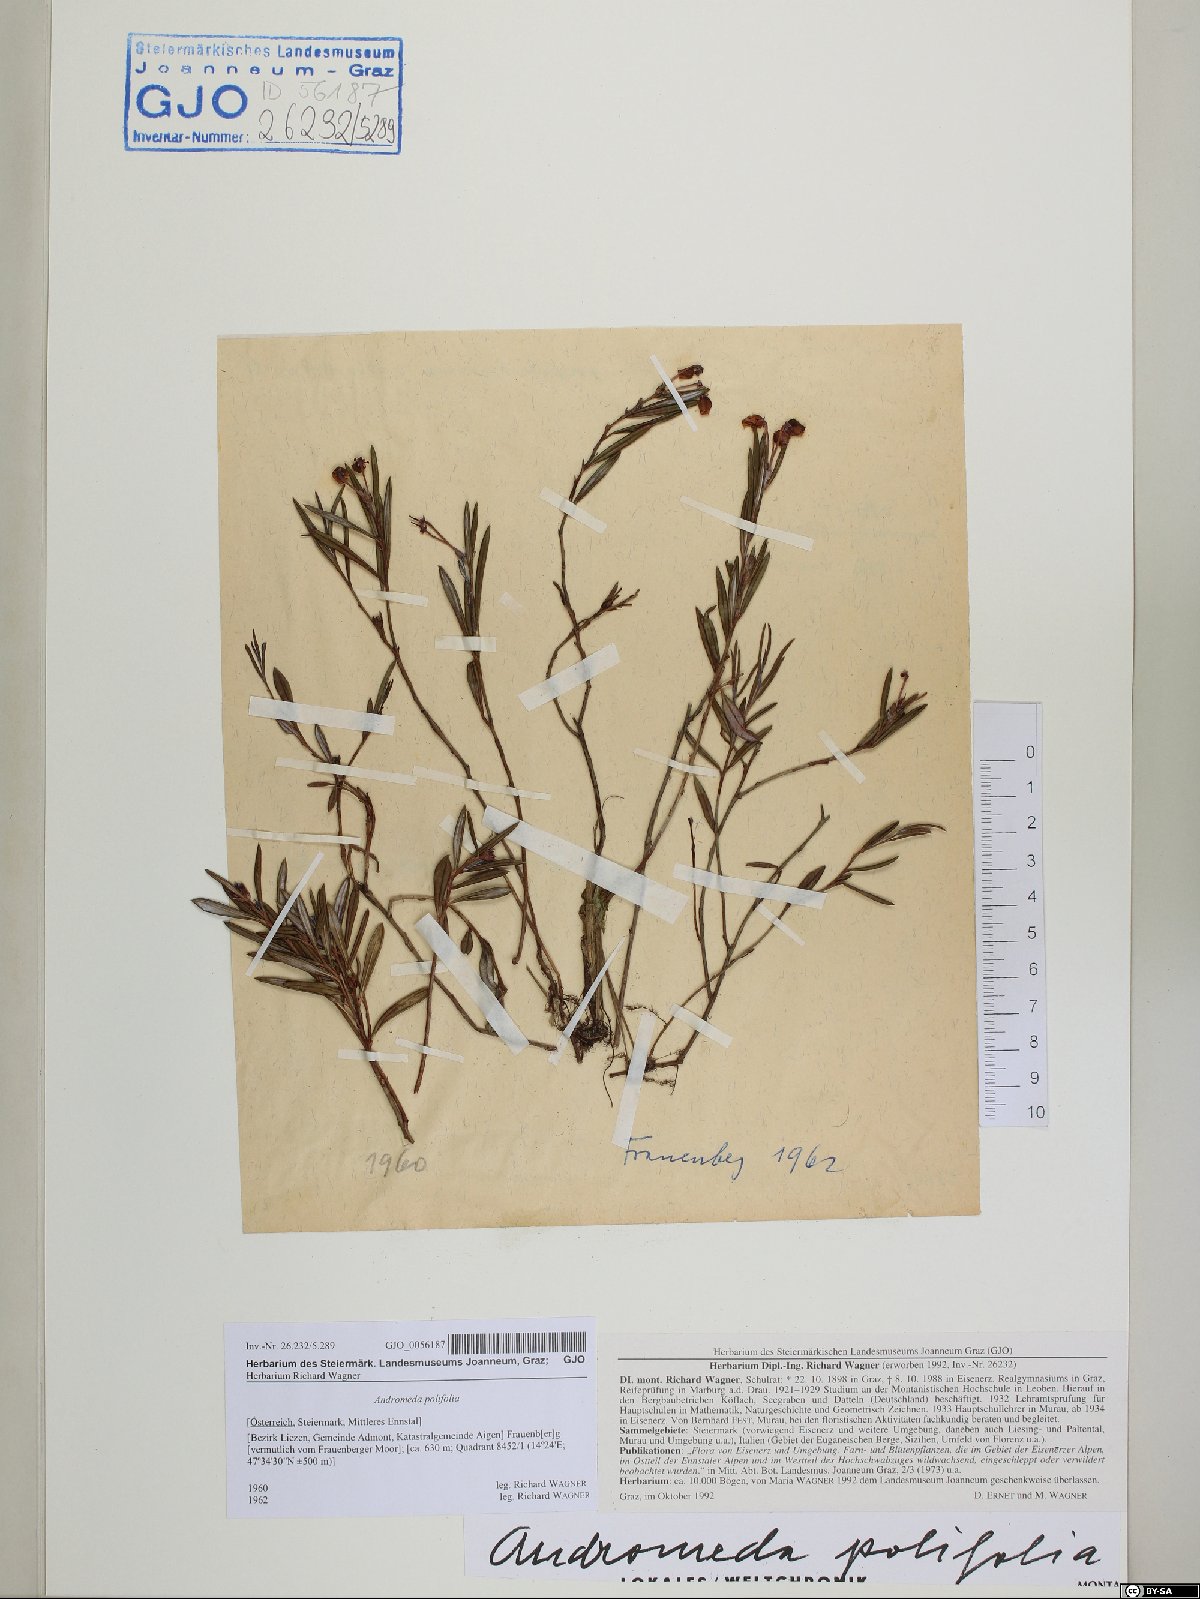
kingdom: Plantae
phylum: Tracheophyta
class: Magnoliopsida
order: Ericales
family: Ericaceae
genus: Andromeda
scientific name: Andromeda polifolia
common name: Bog-rosemary
